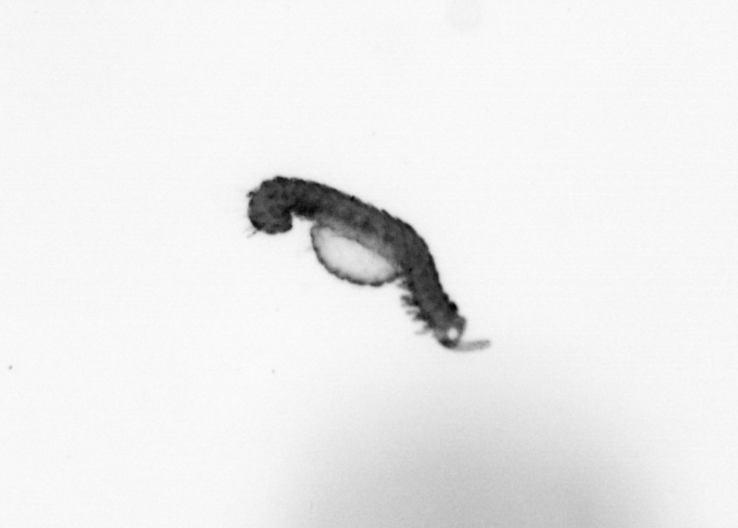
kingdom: Animalia
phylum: Annelida
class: Polychaeta
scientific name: Polychaeta
